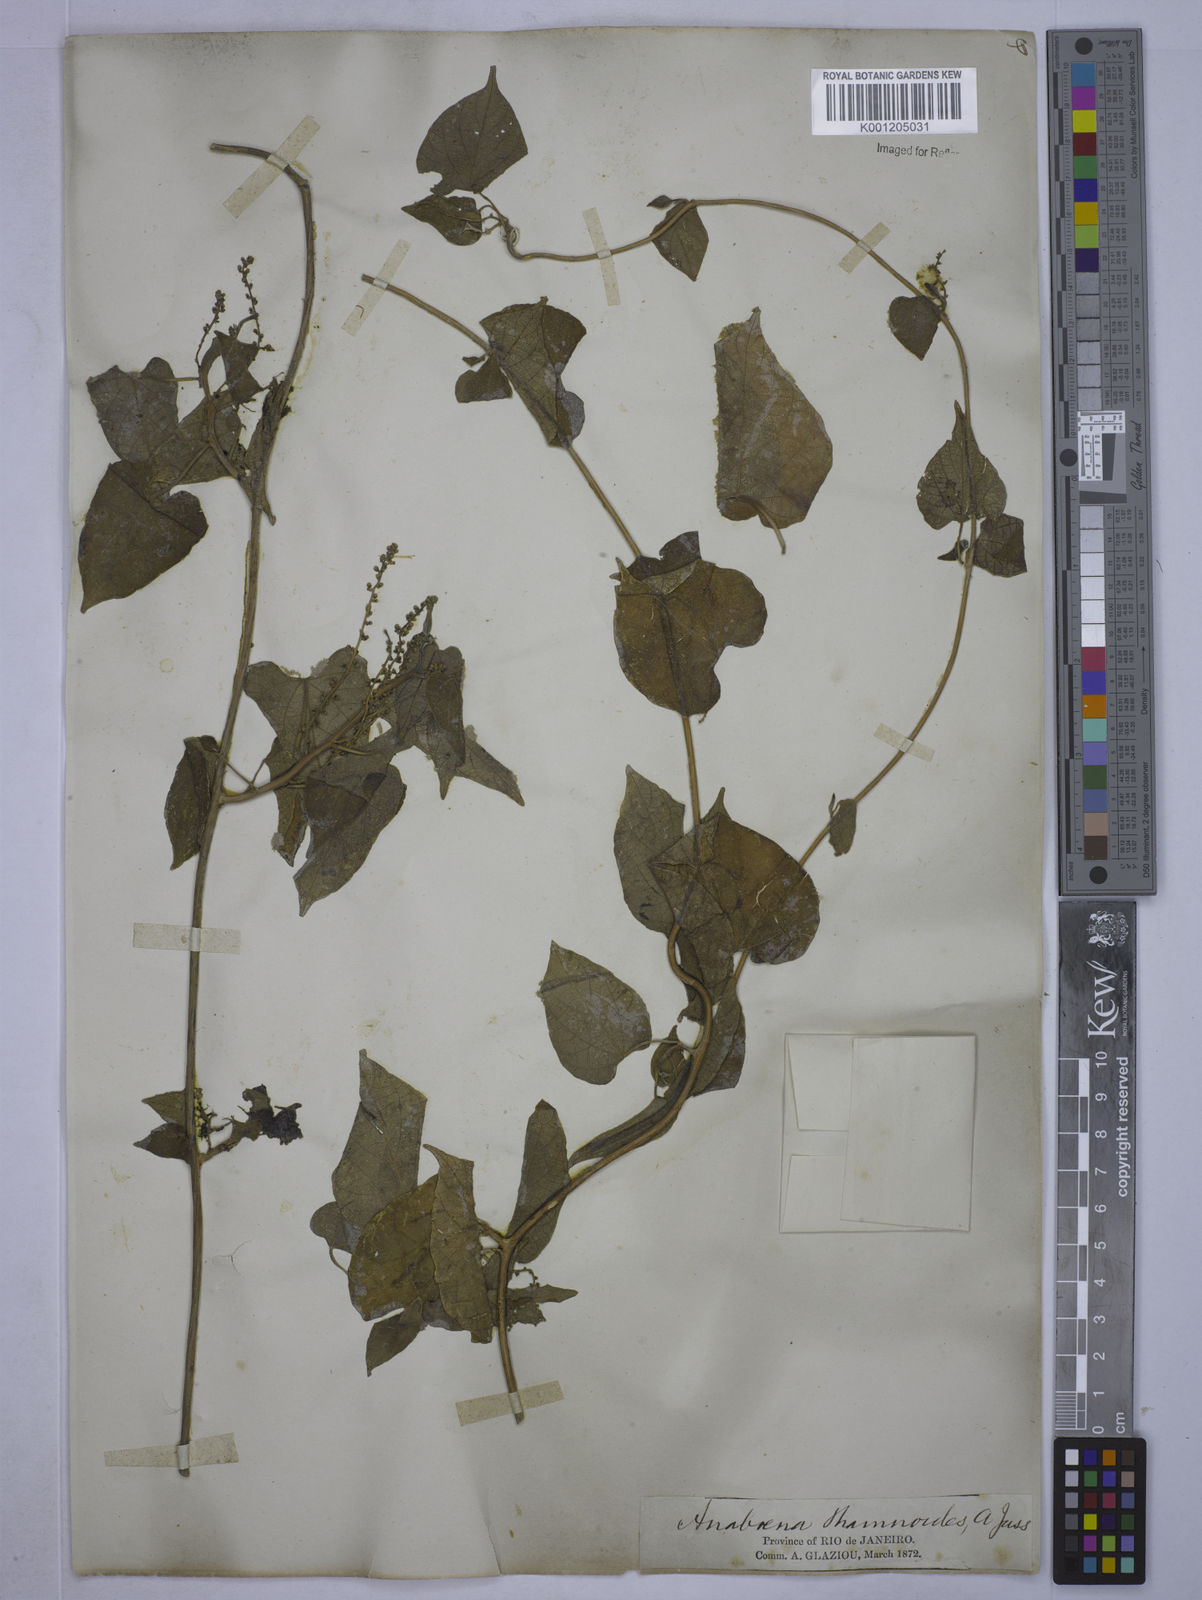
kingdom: Plantae
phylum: Tracheophyta
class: Magnoliopsida
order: Malpighiales
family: Euphorbiaceae
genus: Romanoa
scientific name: Romanoa tamnoides
